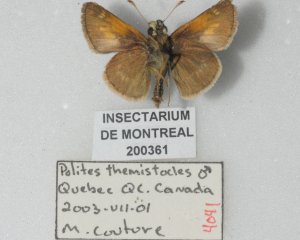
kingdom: Animalia
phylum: Arthropoda
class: Insecta
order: Lepidoptera
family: Hesperiidae
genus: Polites
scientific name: Polites themistocles
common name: Tawny-edged Skipper
